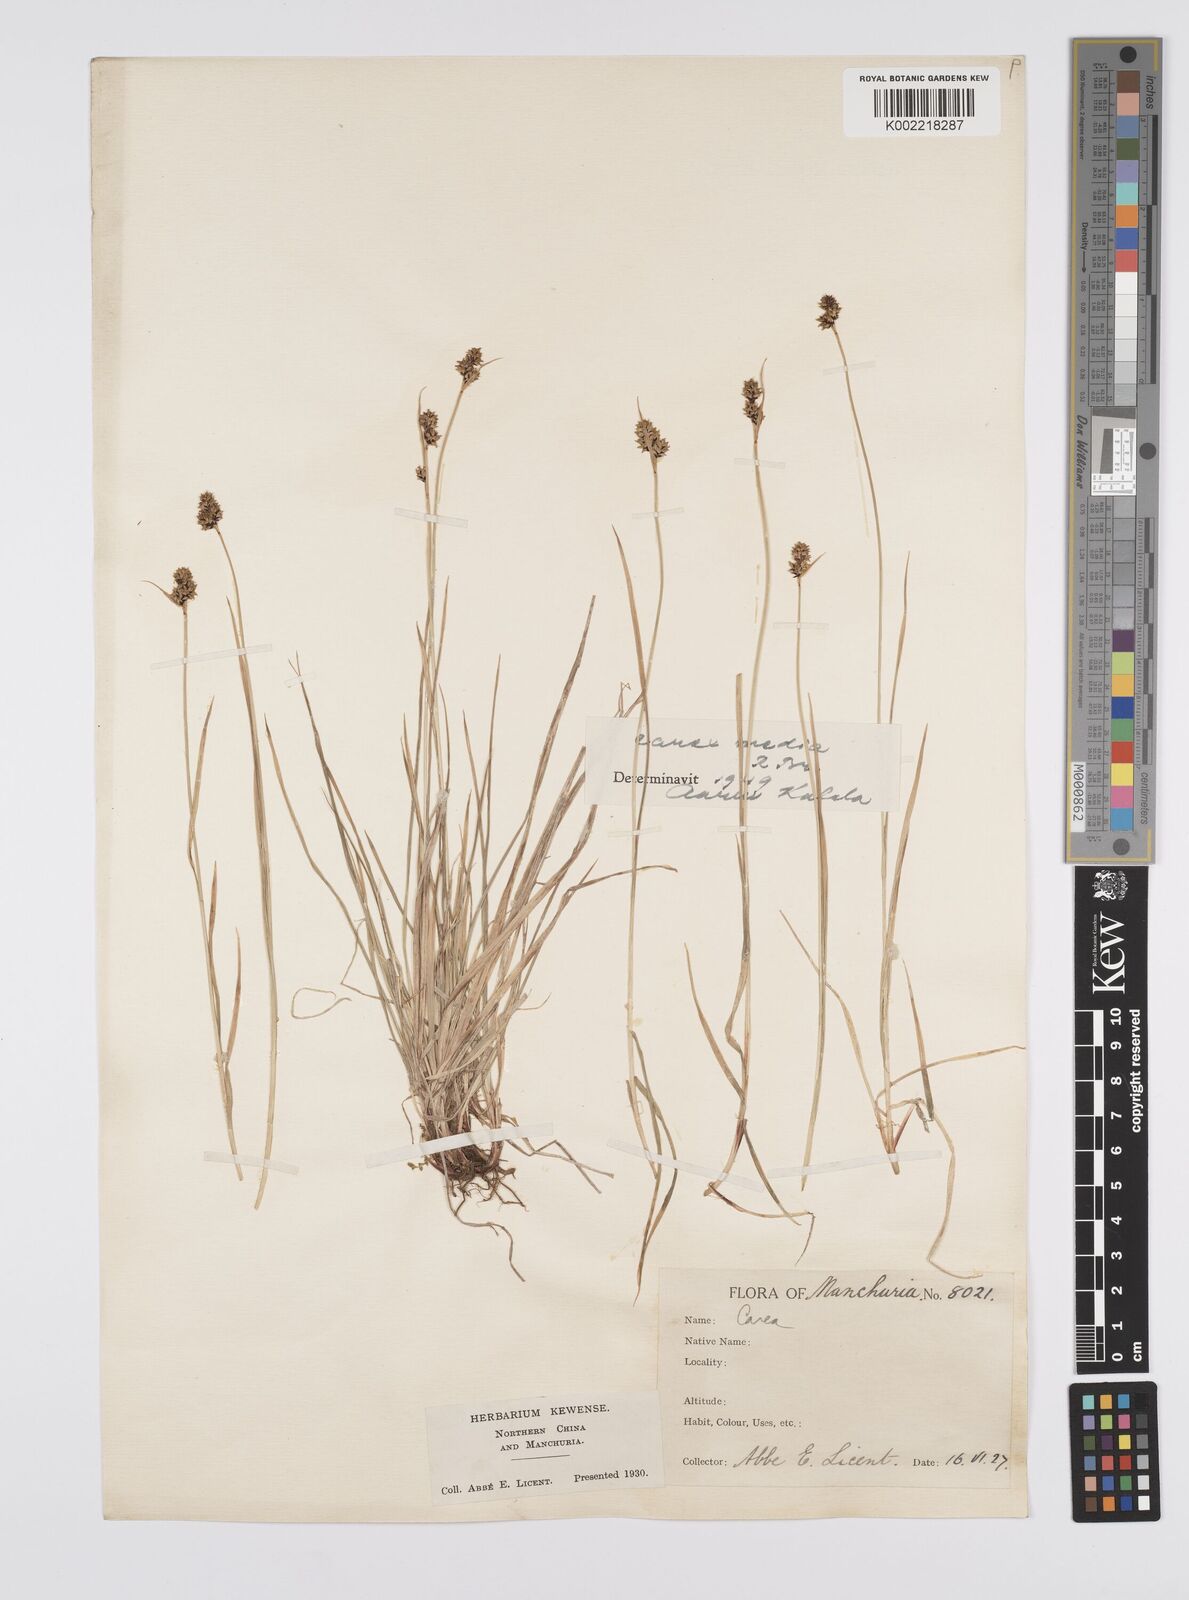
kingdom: Plantae
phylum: Tracheophyta
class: Liliopsida
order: Poales
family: Cyperaceae
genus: Carex
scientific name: Carex norvegica
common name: Close-headed alpine-sedge
